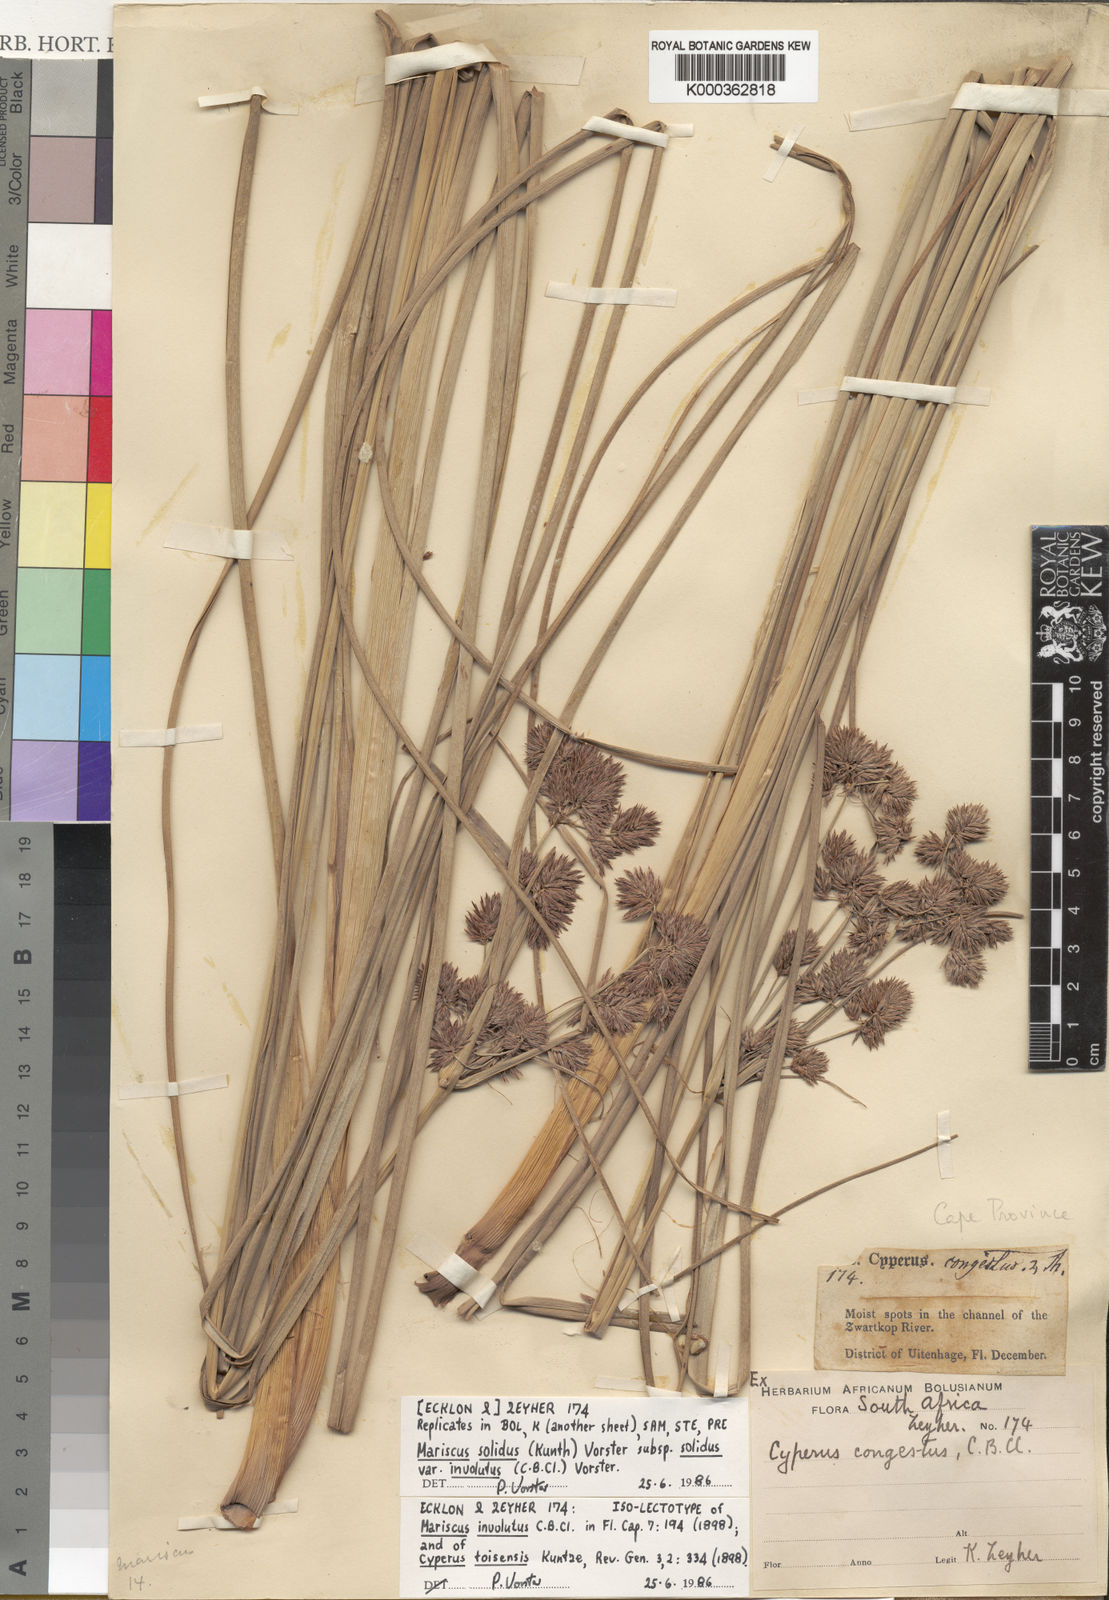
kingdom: Plantae
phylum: Tracheophyta
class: Liliopsida
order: Poales
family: Cyperaceae
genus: Cyperus
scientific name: Cyperus dactyliformis
